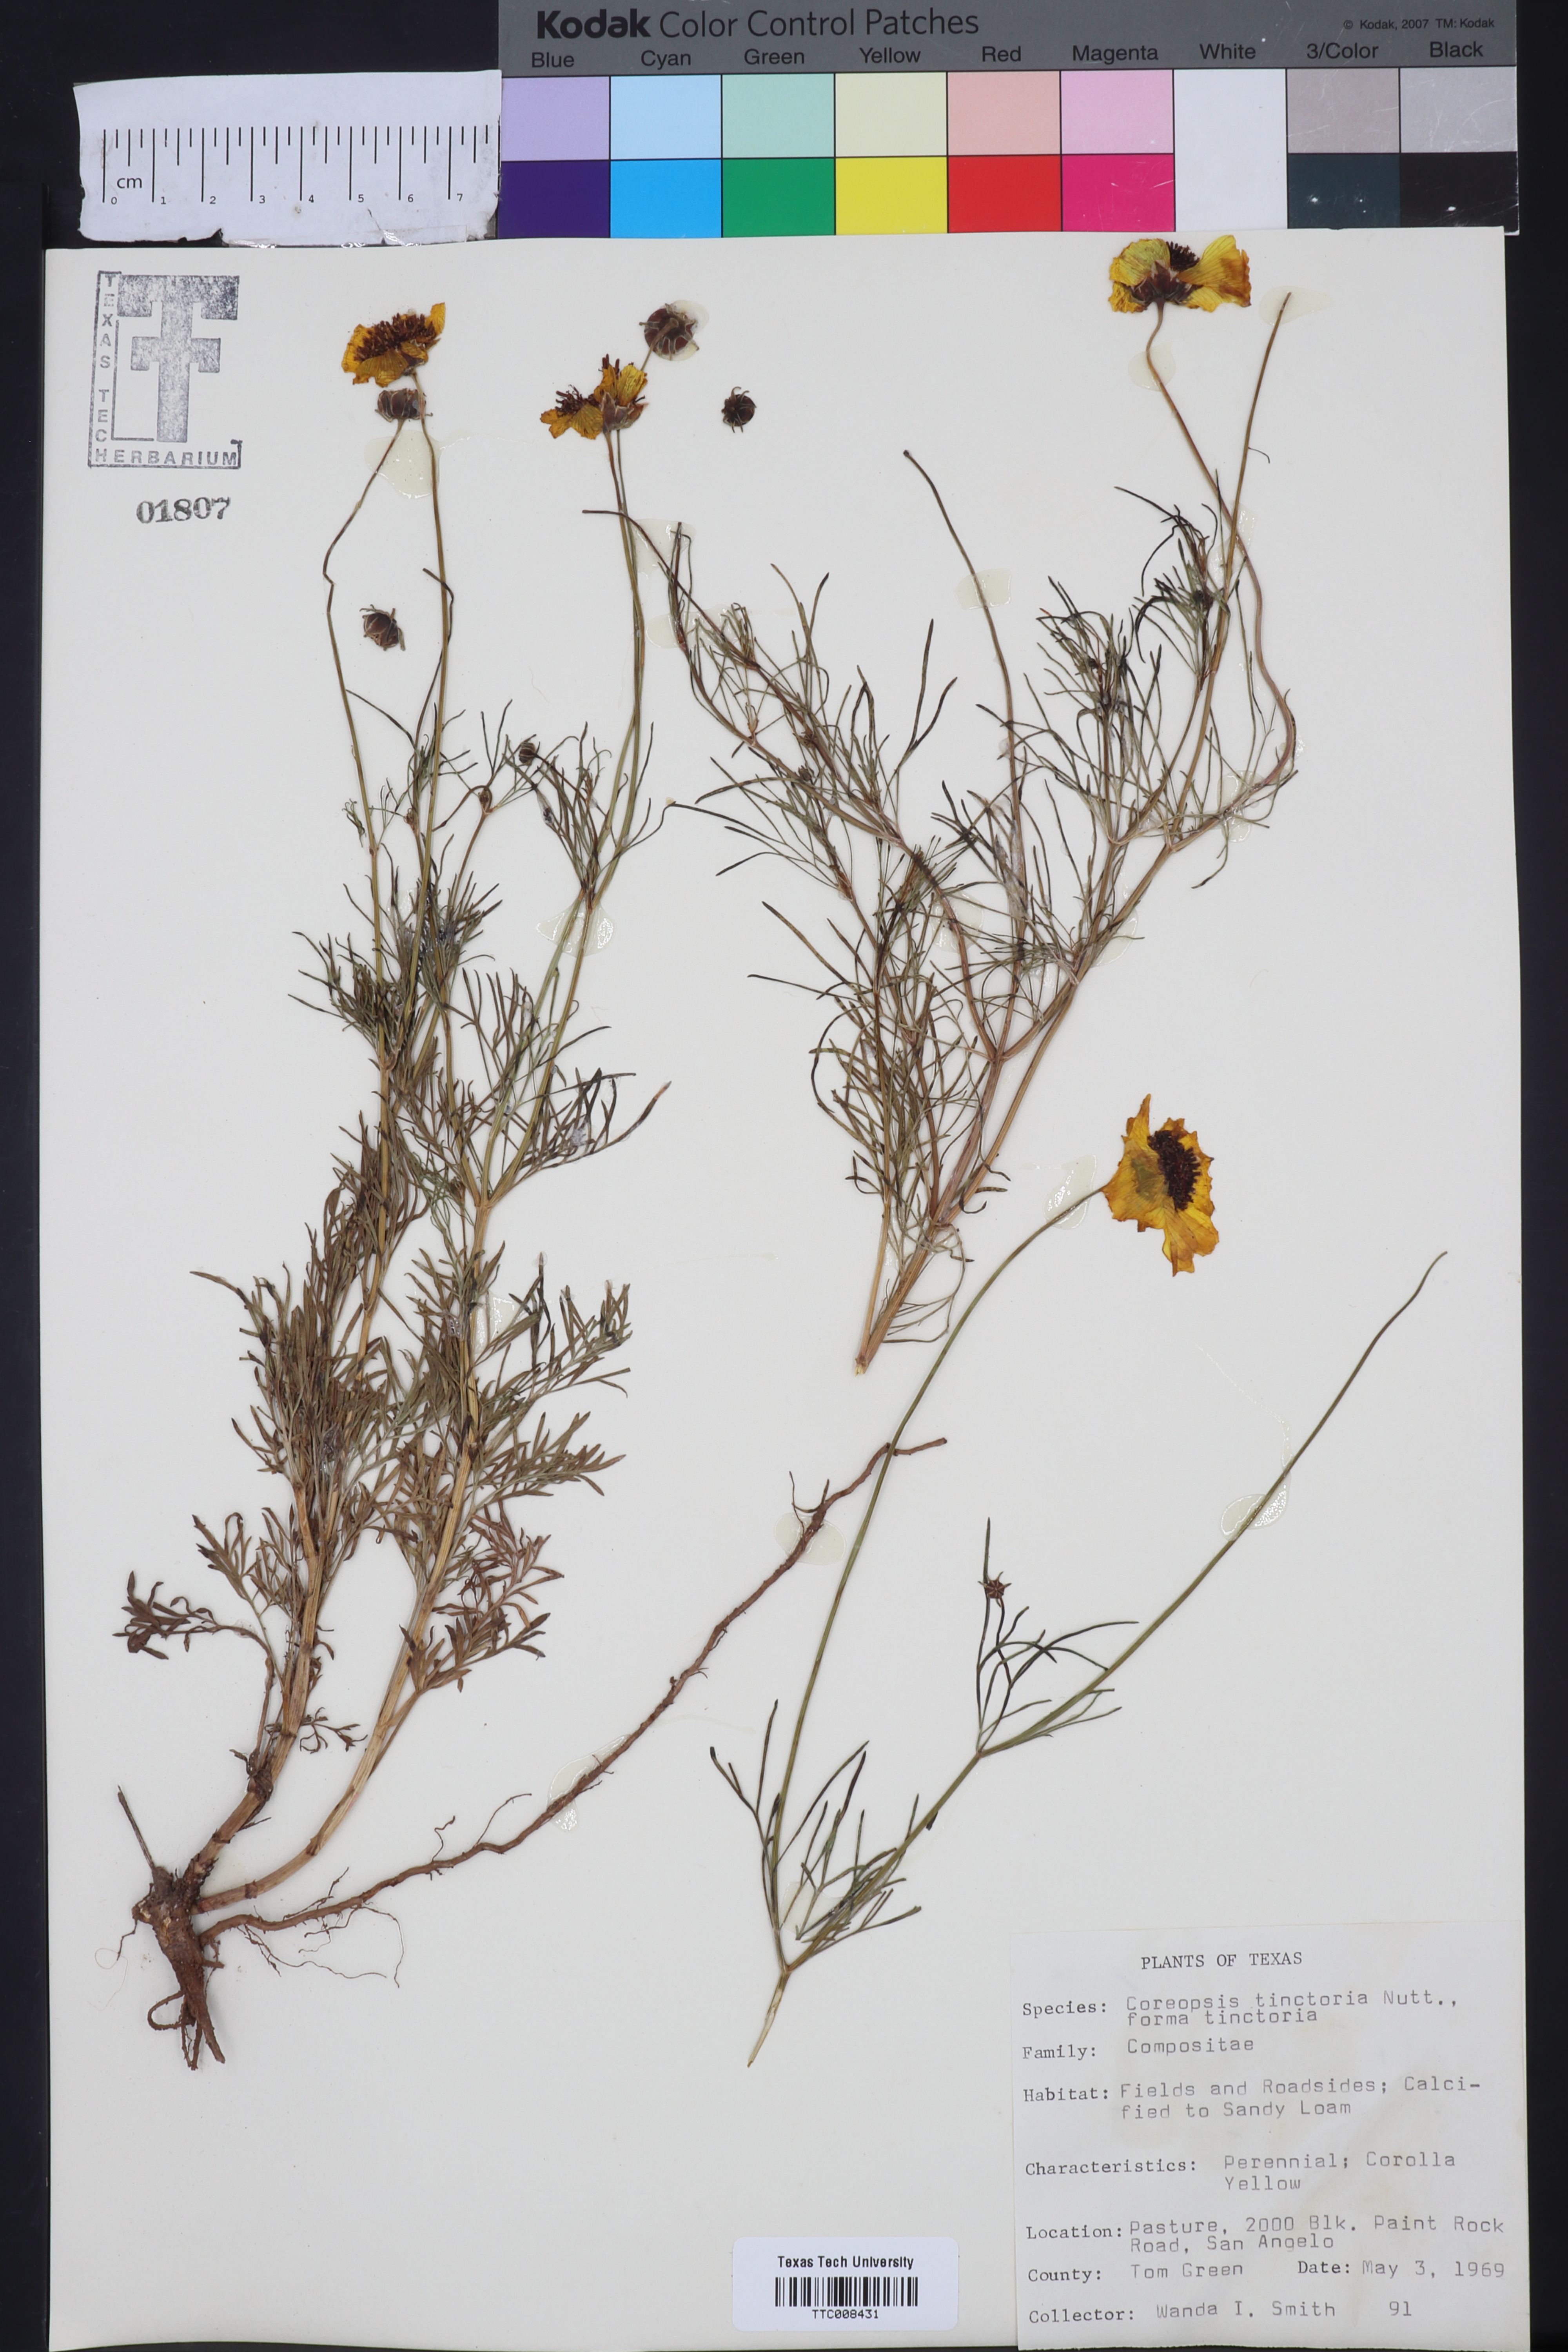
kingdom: Plantae
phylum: Tracheophyta
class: Magnoliopsida
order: Asterales
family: Asteraceae
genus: Coreopsis
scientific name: Coreopsis tinctoria
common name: Garden tickseed
